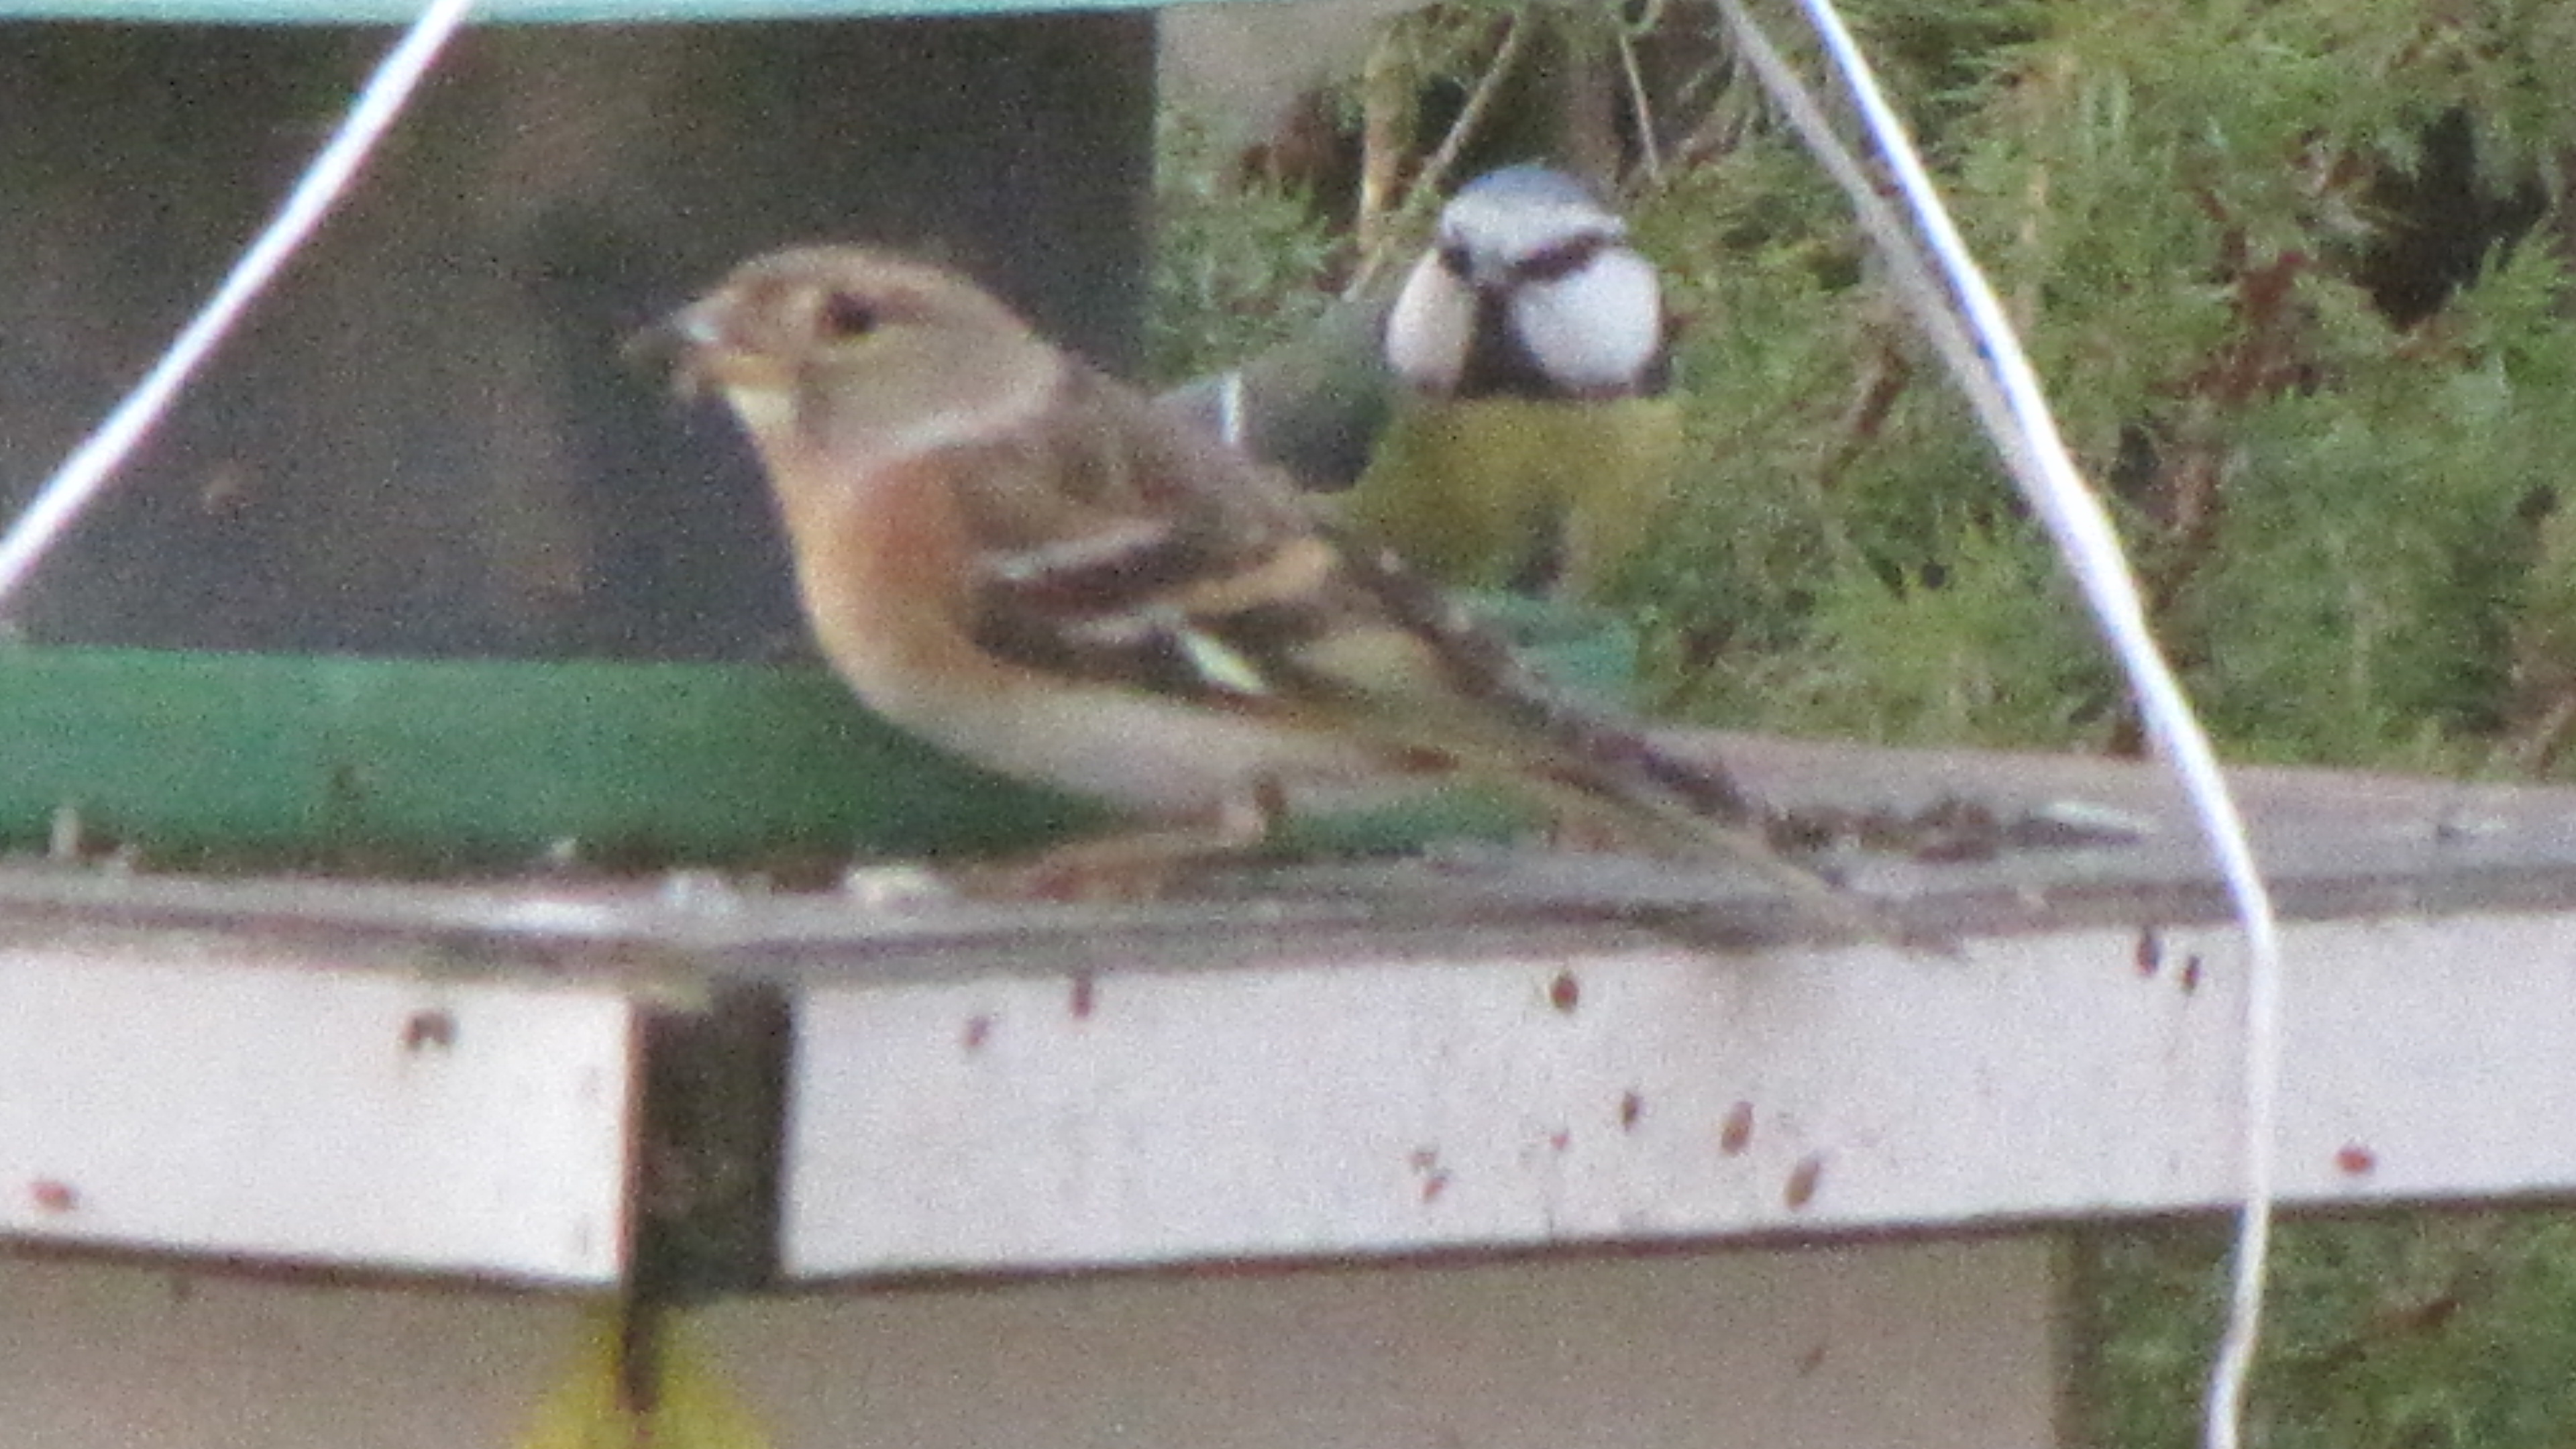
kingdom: Animalia
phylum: Chordata
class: Aves
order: Passeriformes
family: Fringillidae
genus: Fringilla
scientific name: Fringilla montifringilla
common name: Brambling
